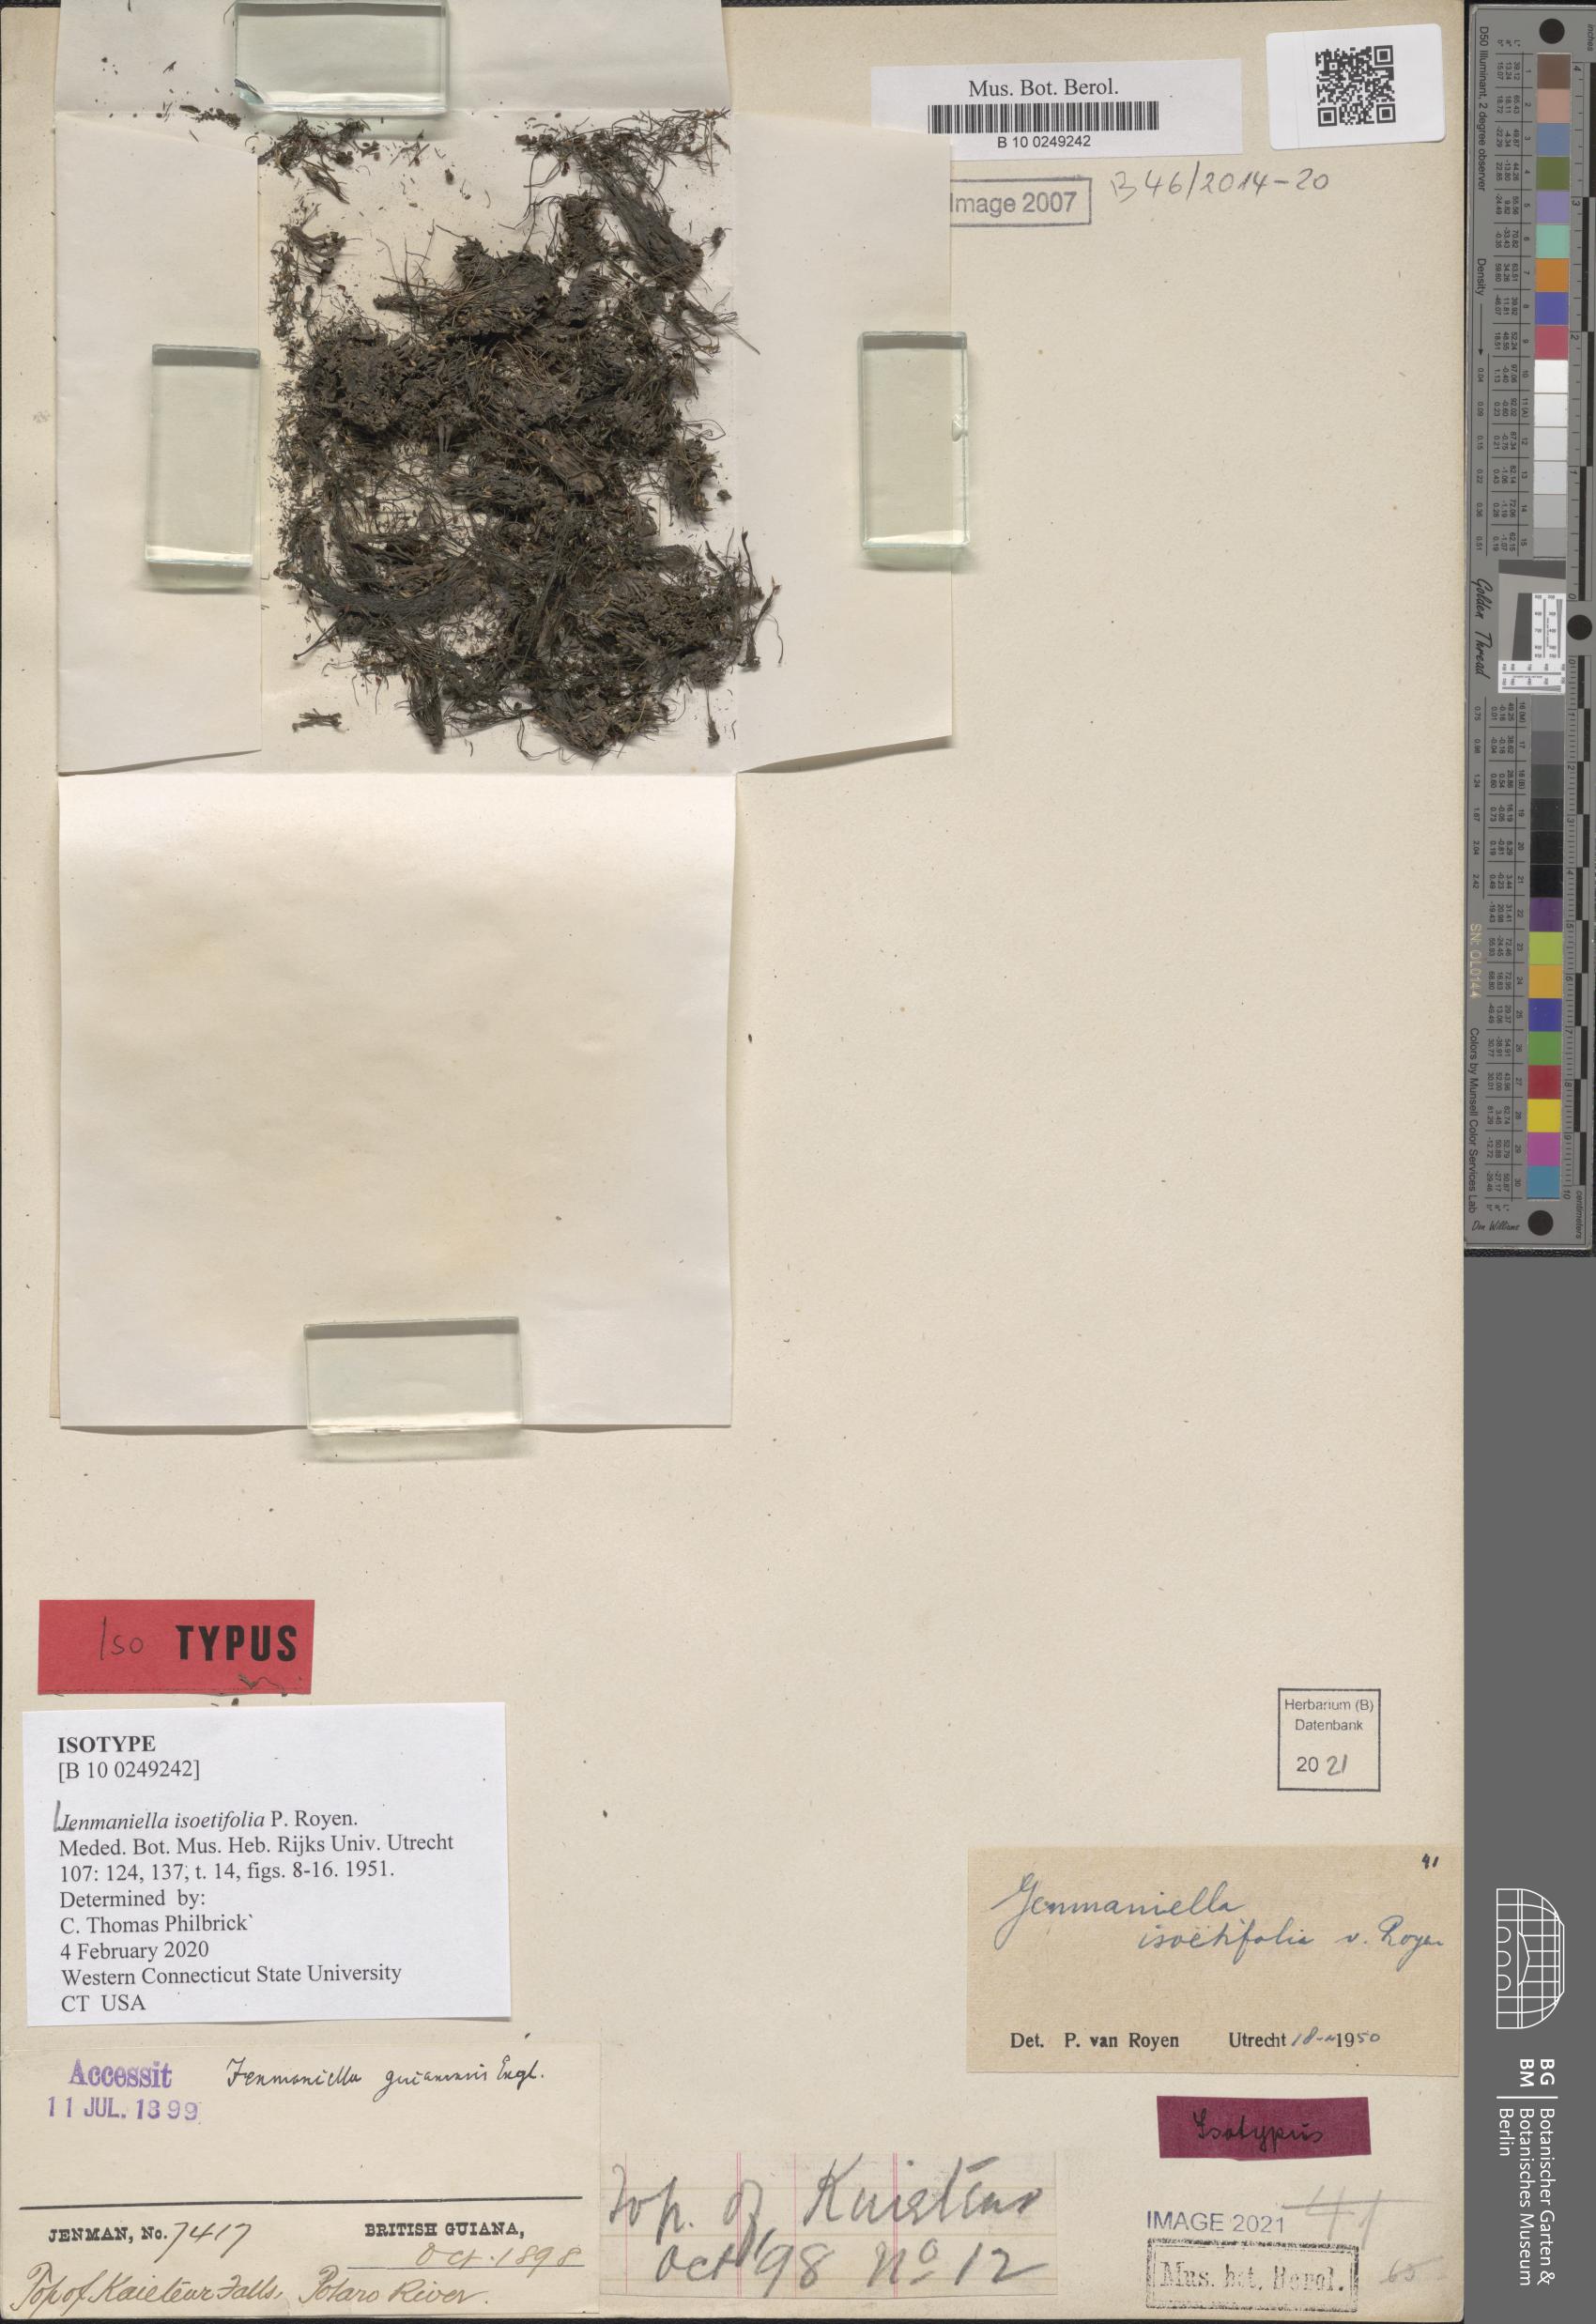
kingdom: Plantae
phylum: Tracheophyta
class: Magnoliopsida
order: Malpighiales
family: Podostemaceae
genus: Lophogyne
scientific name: Lophogyne isoetifolia
